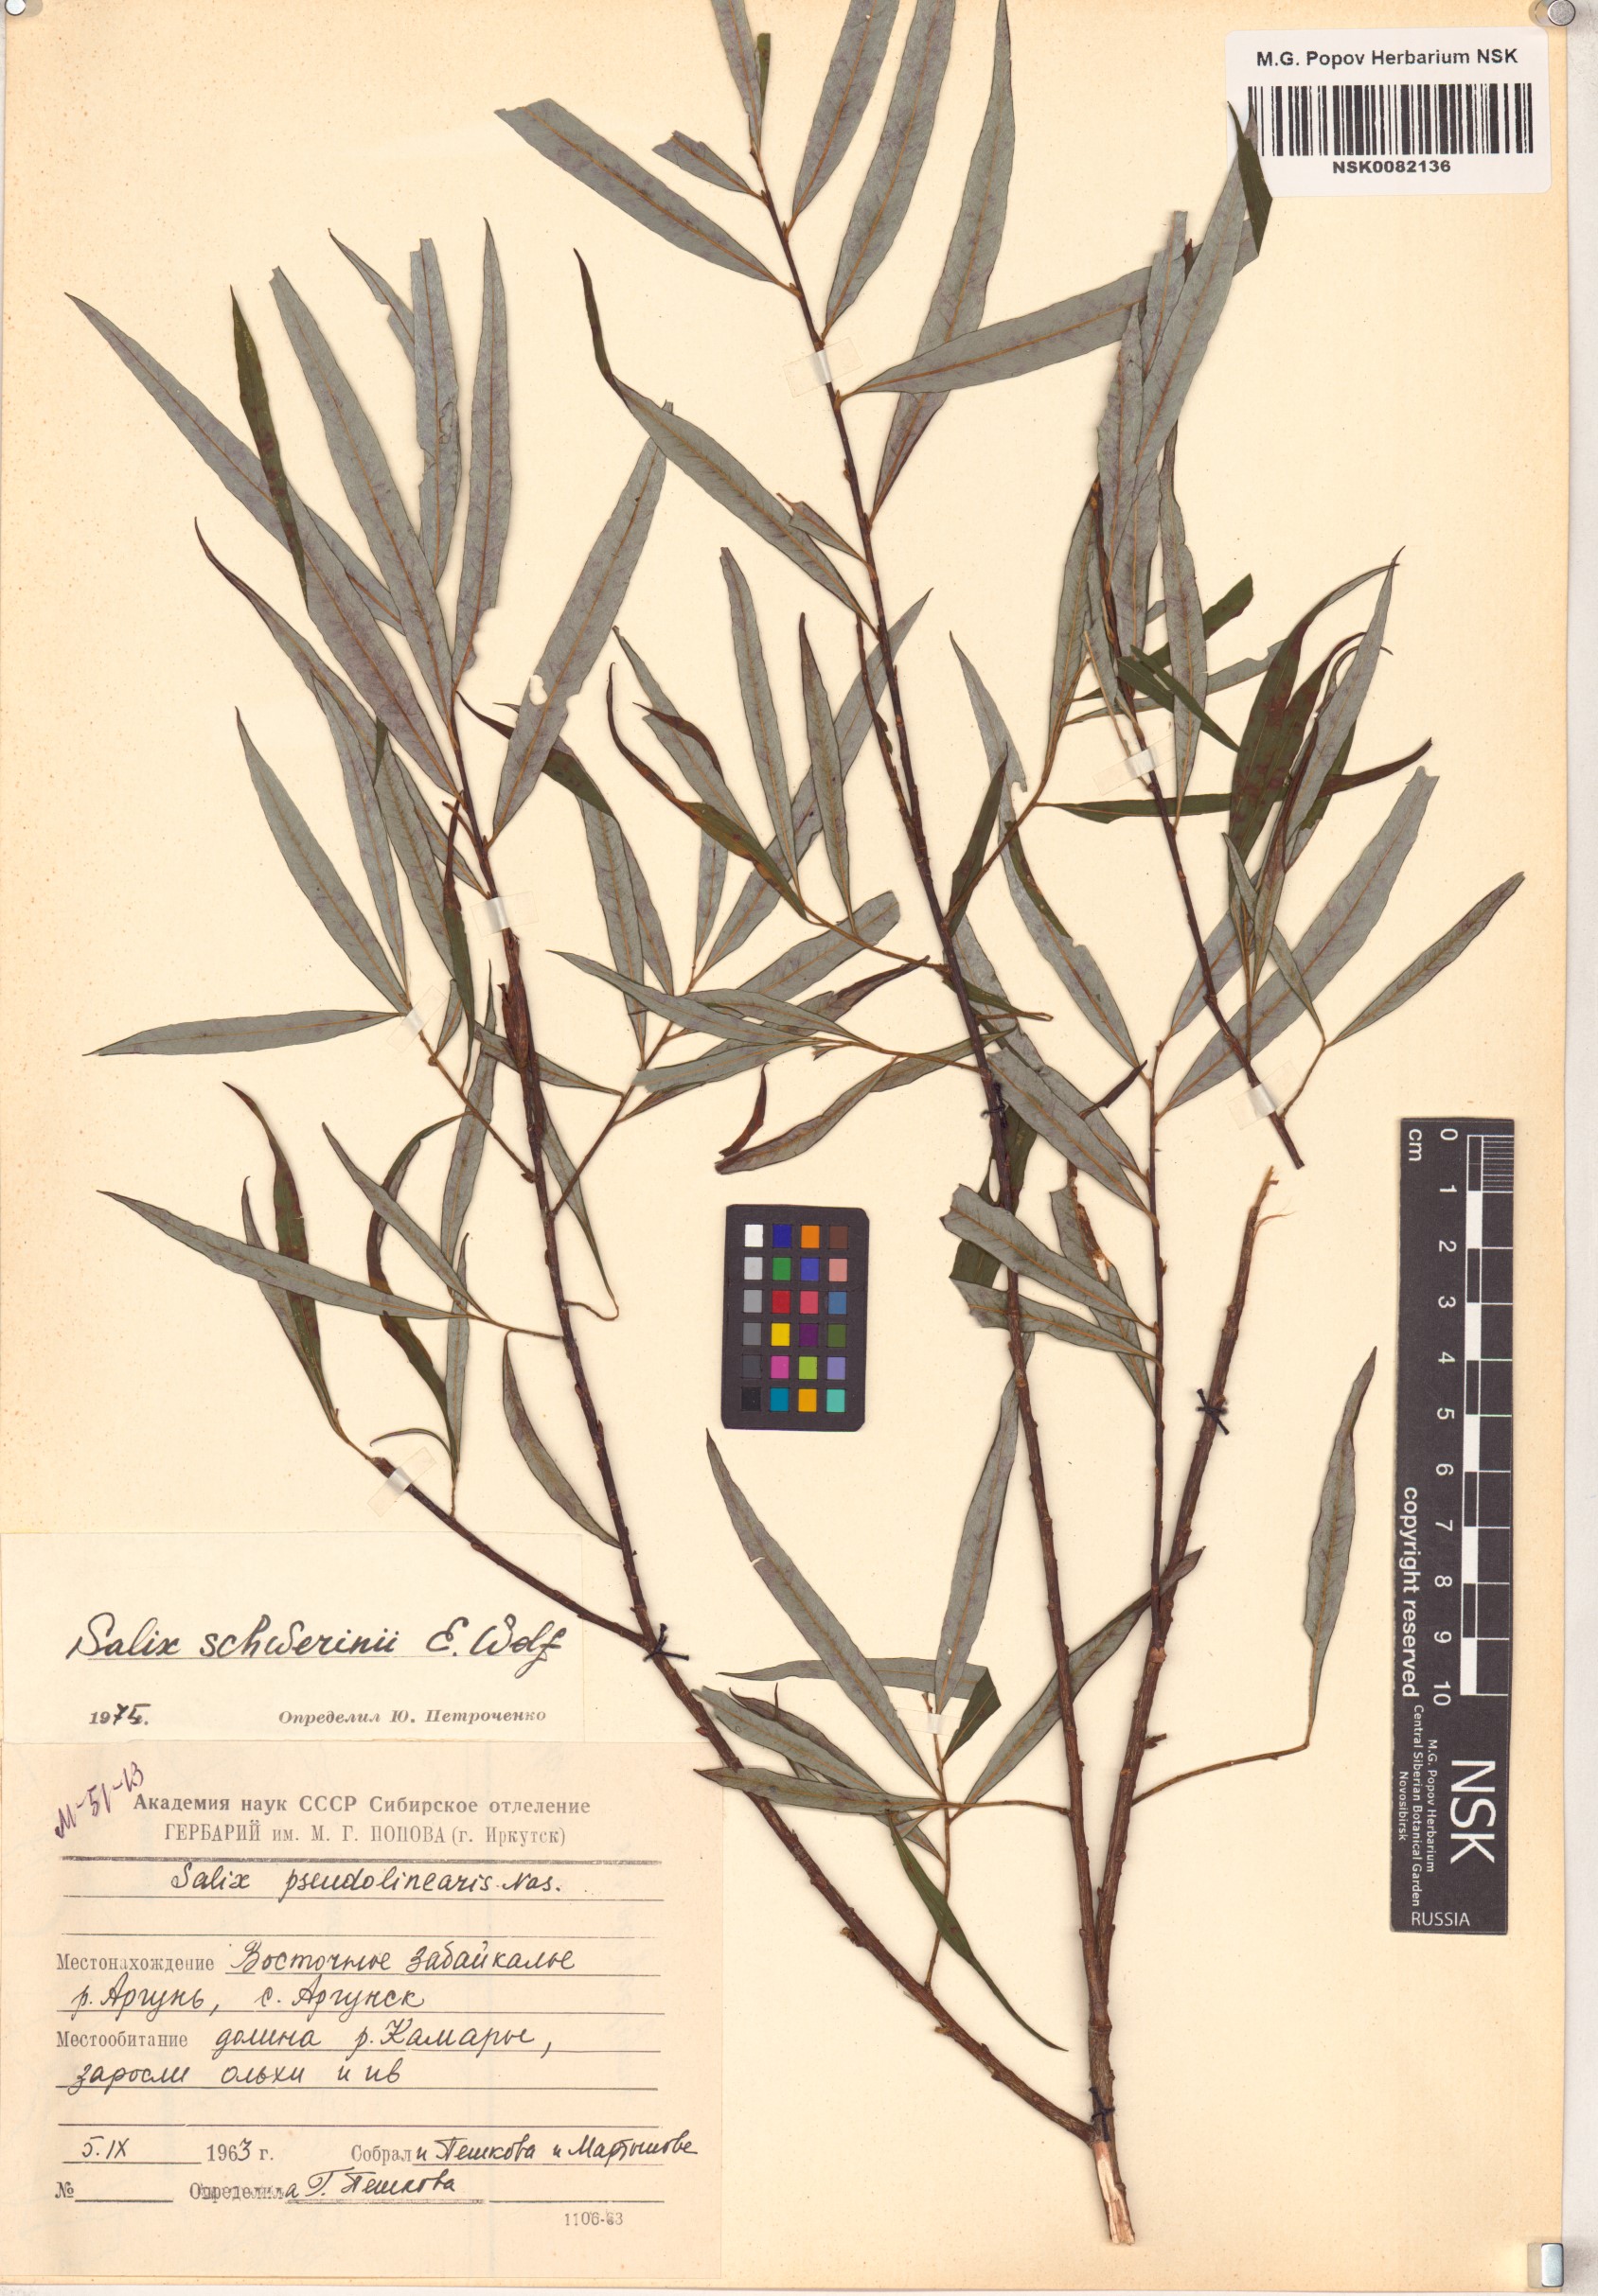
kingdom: Plantae
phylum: Tracheophyta
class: Magnoliopsida
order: Malpighiales
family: Salicaceae
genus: Salix
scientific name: Salix schwerinii
